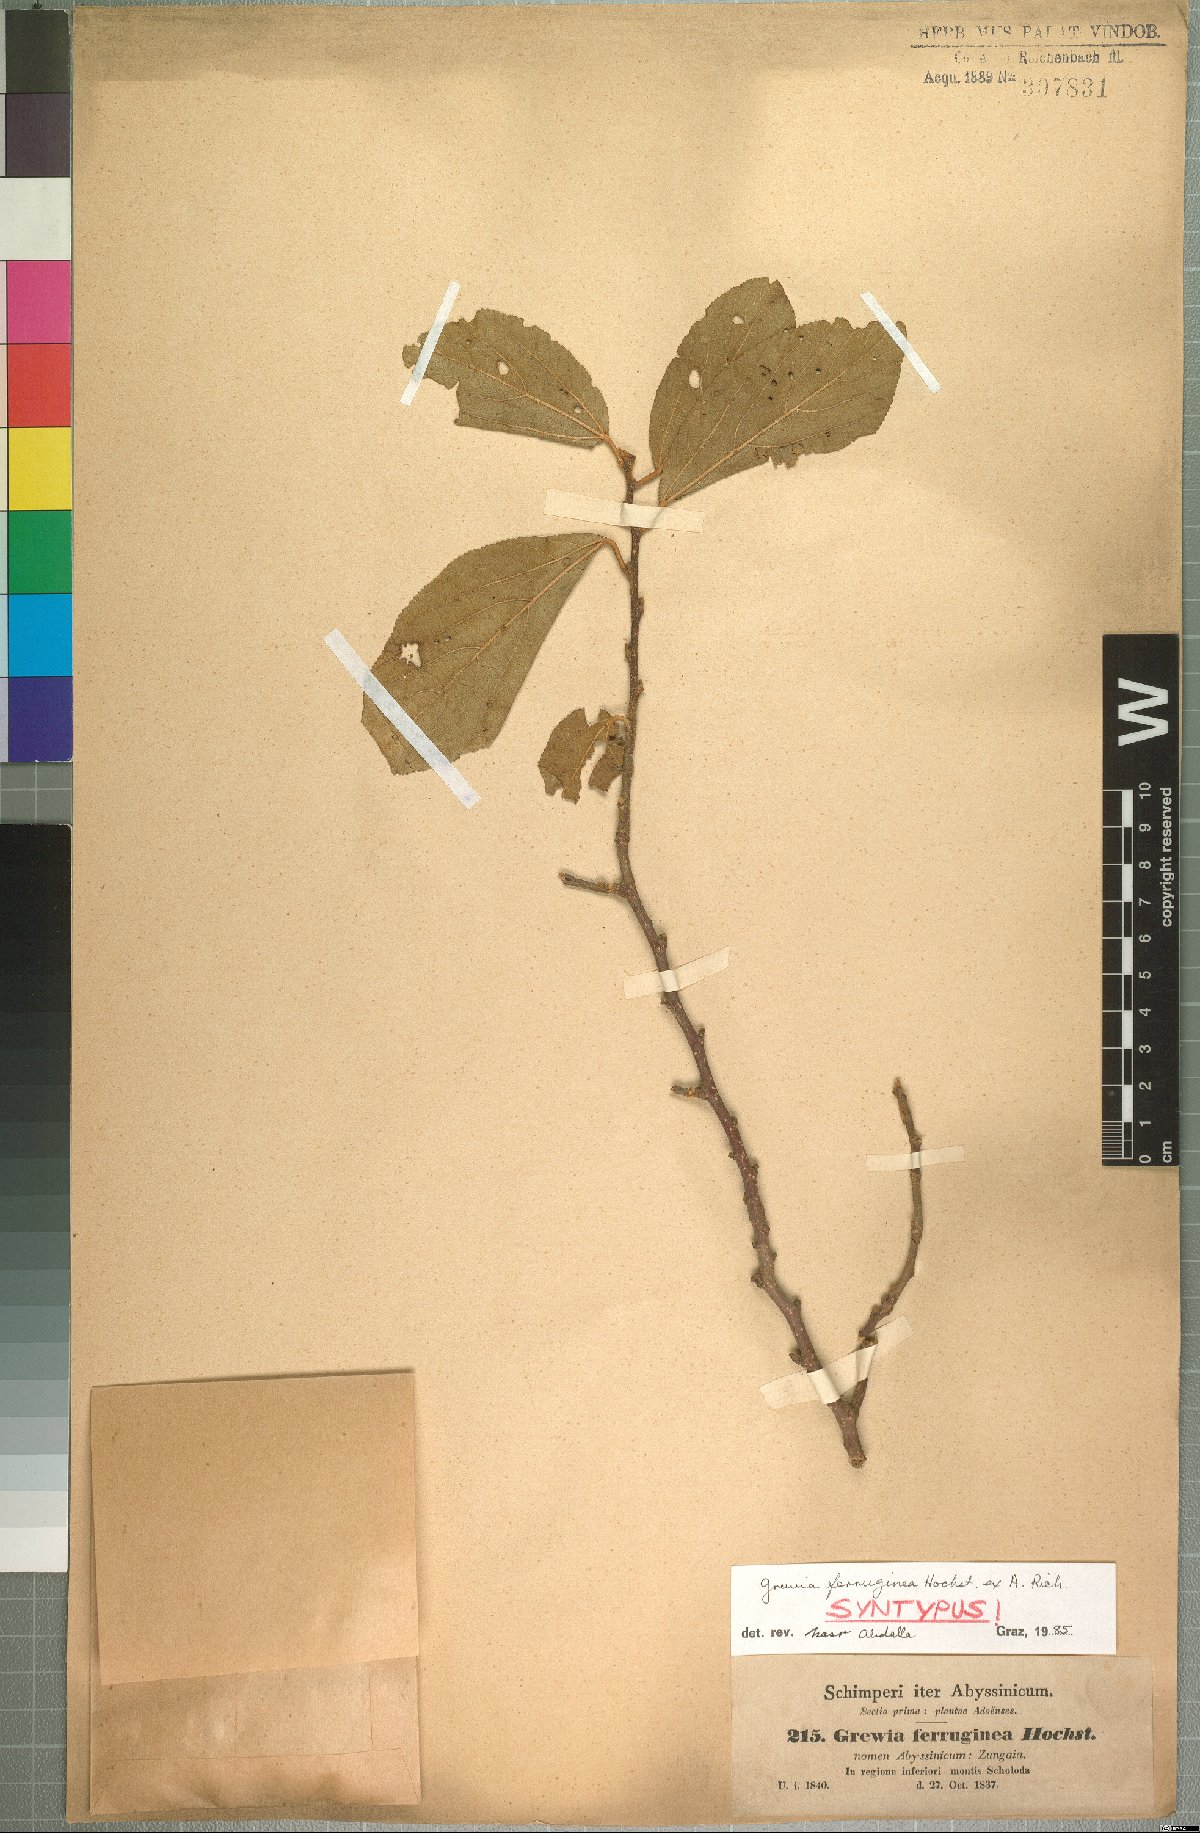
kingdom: Plantae
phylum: Tracheophyta
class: Magnoliopsida
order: Malvales
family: Malvaceae
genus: Grewia
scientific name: Grewia ferruginea
